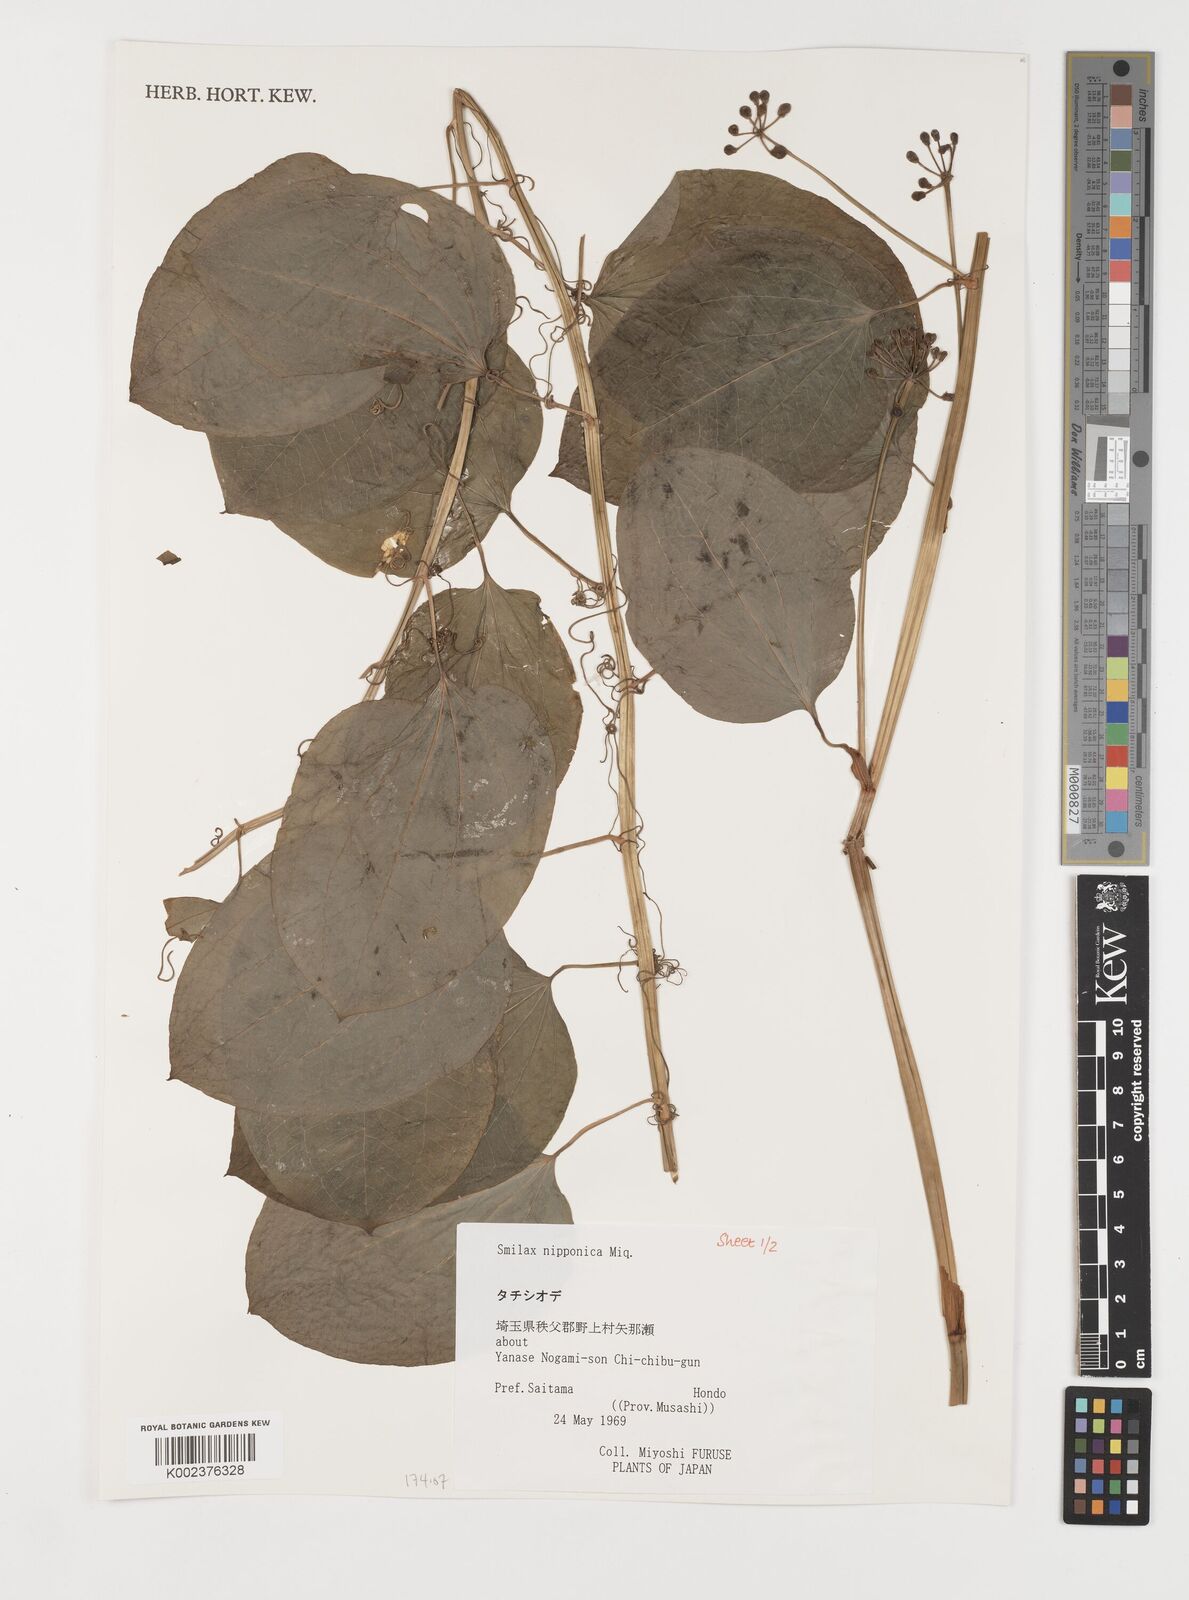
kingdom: Plantae
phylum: Tracheophyta
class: Liliopsida
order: Liliales
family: Smilacaceae
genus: Smilax
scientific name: Smilax nipponica
